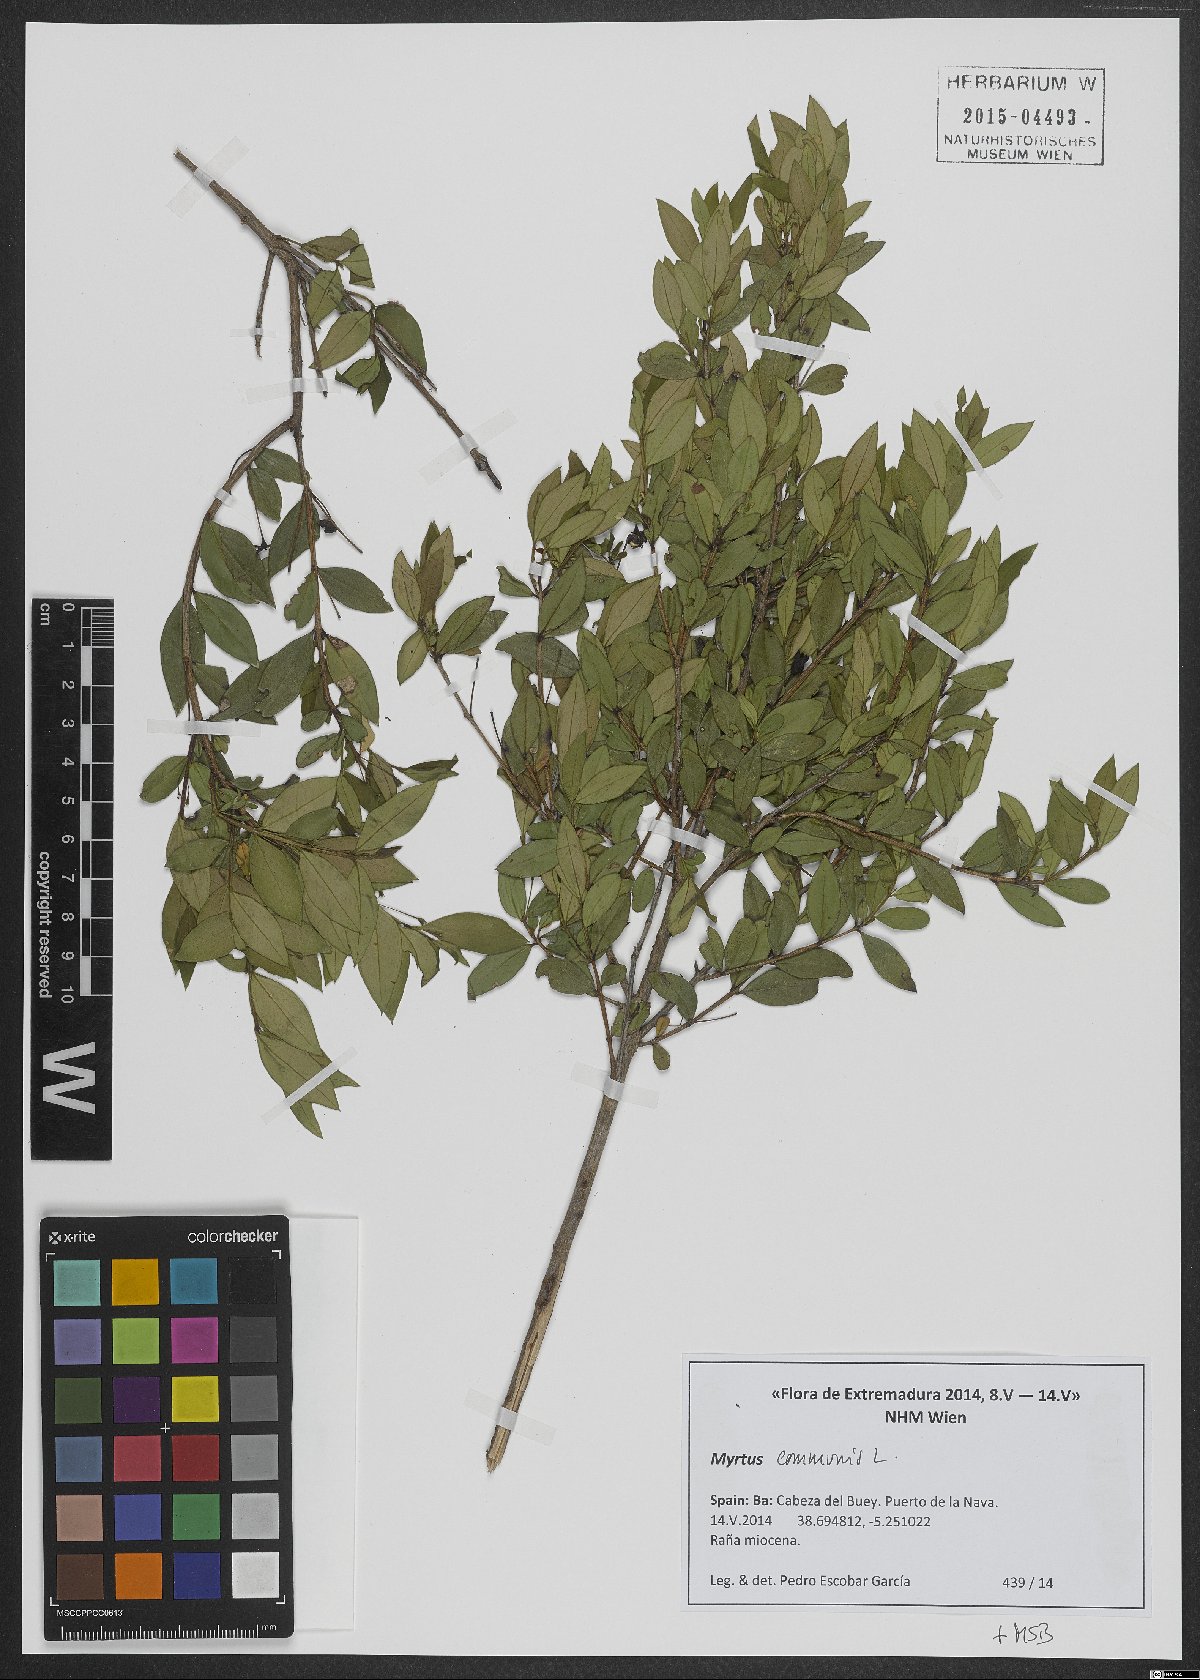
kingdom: Plantae
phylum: Tracheophyta
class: Magnoliopsida
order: Myrtales
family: Myrtaceae
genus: Myrtus
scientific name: Myrtus communis
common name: Myrtle
